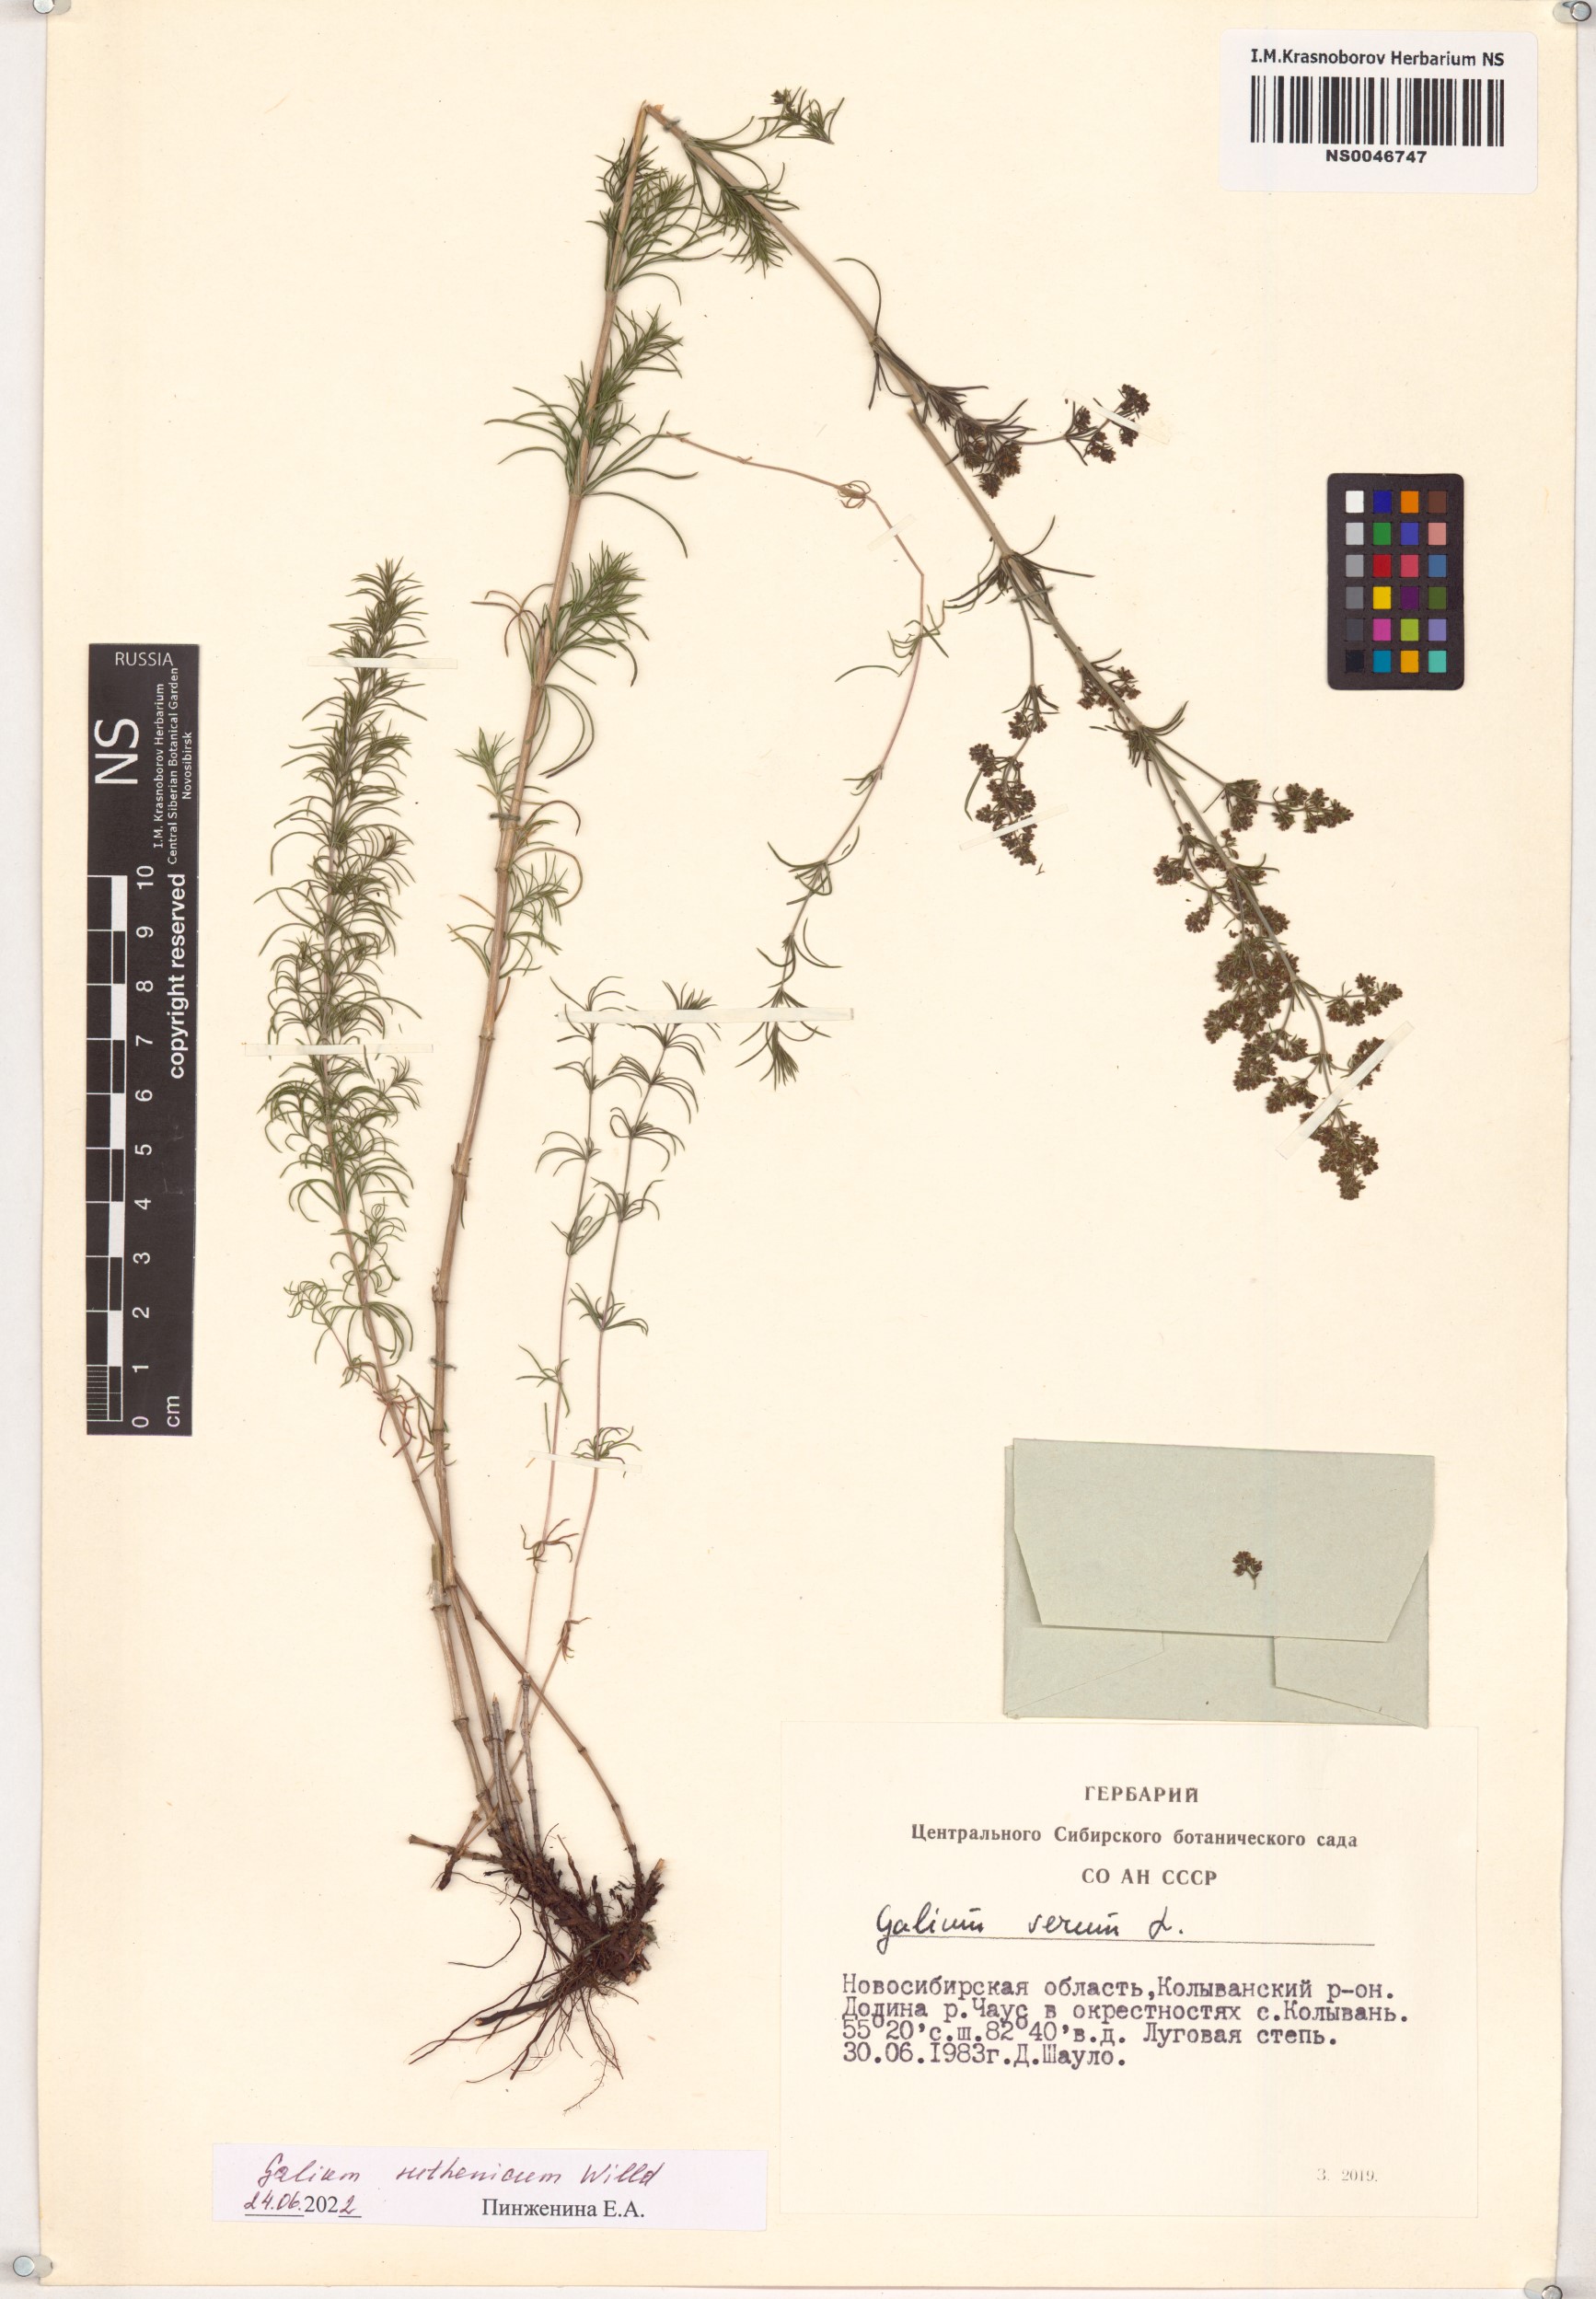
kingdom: Plantae
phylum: Tracheophyta
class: Magnoliopsida
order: Gentianales
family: Rubiaceae
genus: Galium
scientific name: Galium verum
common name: Lady's bedstraw
